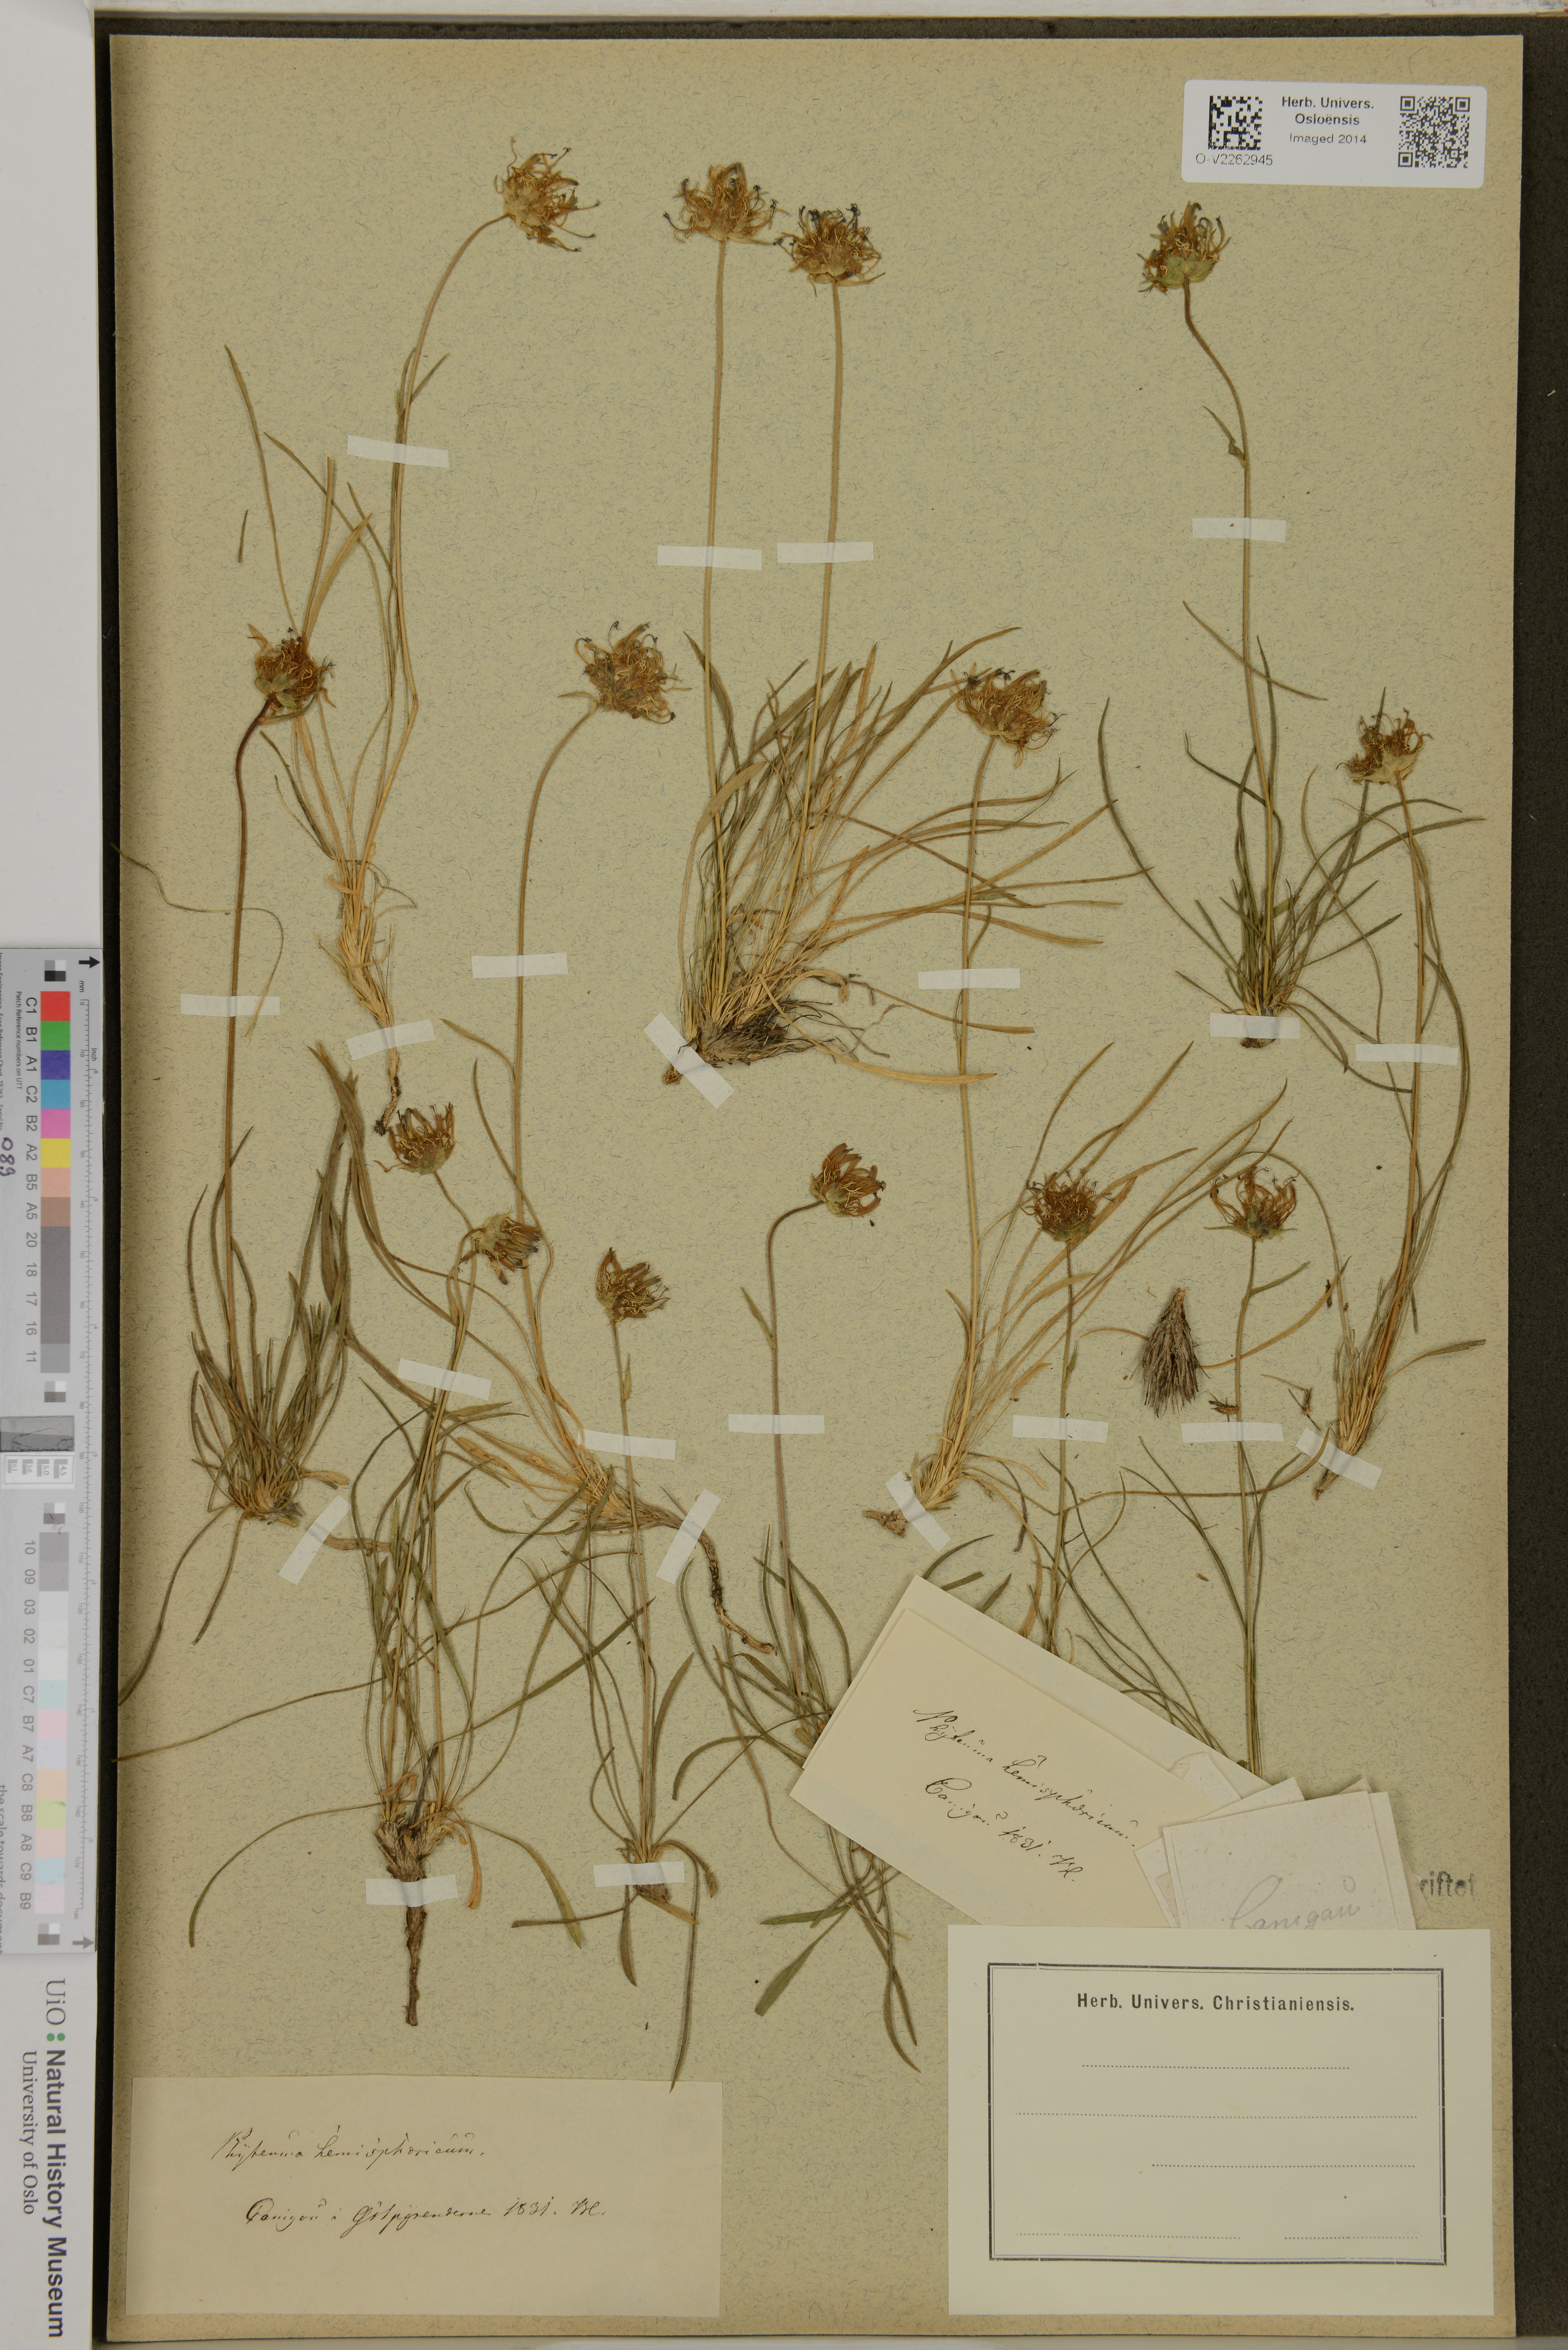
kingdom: Plantae
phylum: Tracheophyta
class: Magnoliopsida
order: Asterales
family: Campanulaceae
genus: Phyteuma
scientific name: Phyteuma hemisphaericum
